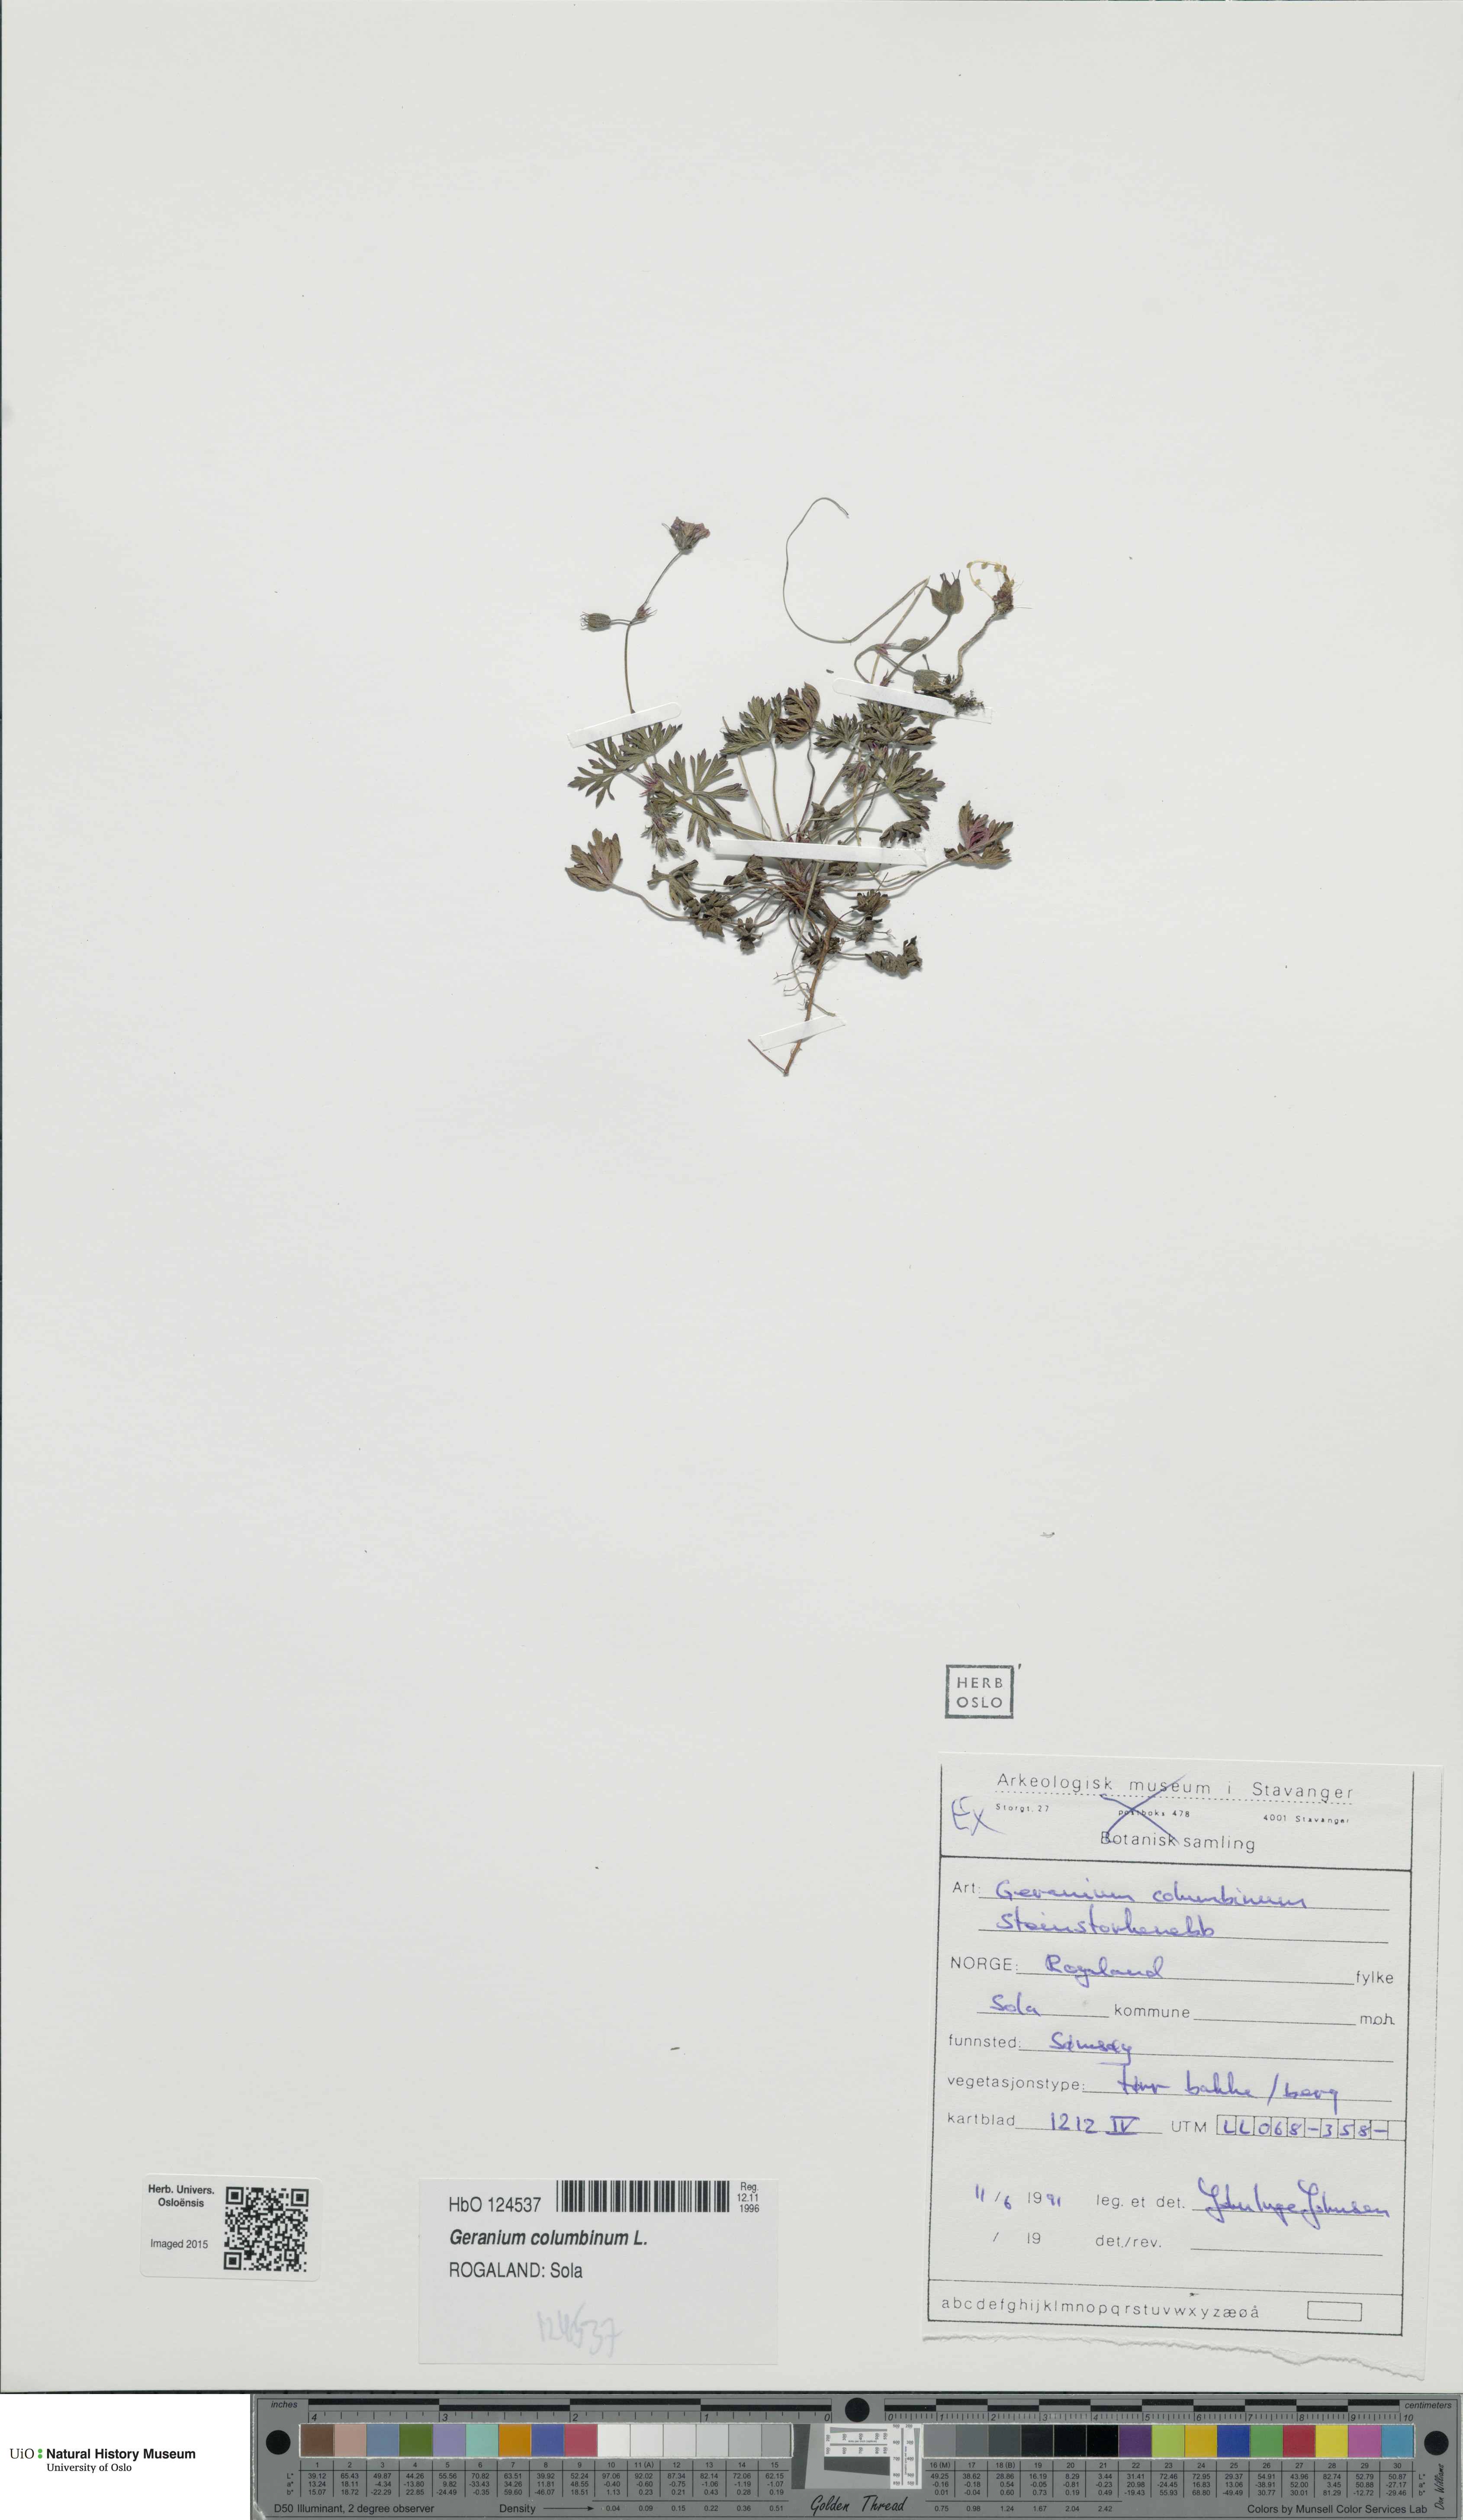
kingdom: Plantae
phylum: Tracheophyta
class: Magnoliopsida
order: Geraniales
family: Geraniaceae
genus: Geranium
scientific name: Geranium columbinum
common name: Long-stalked crane's-bill
